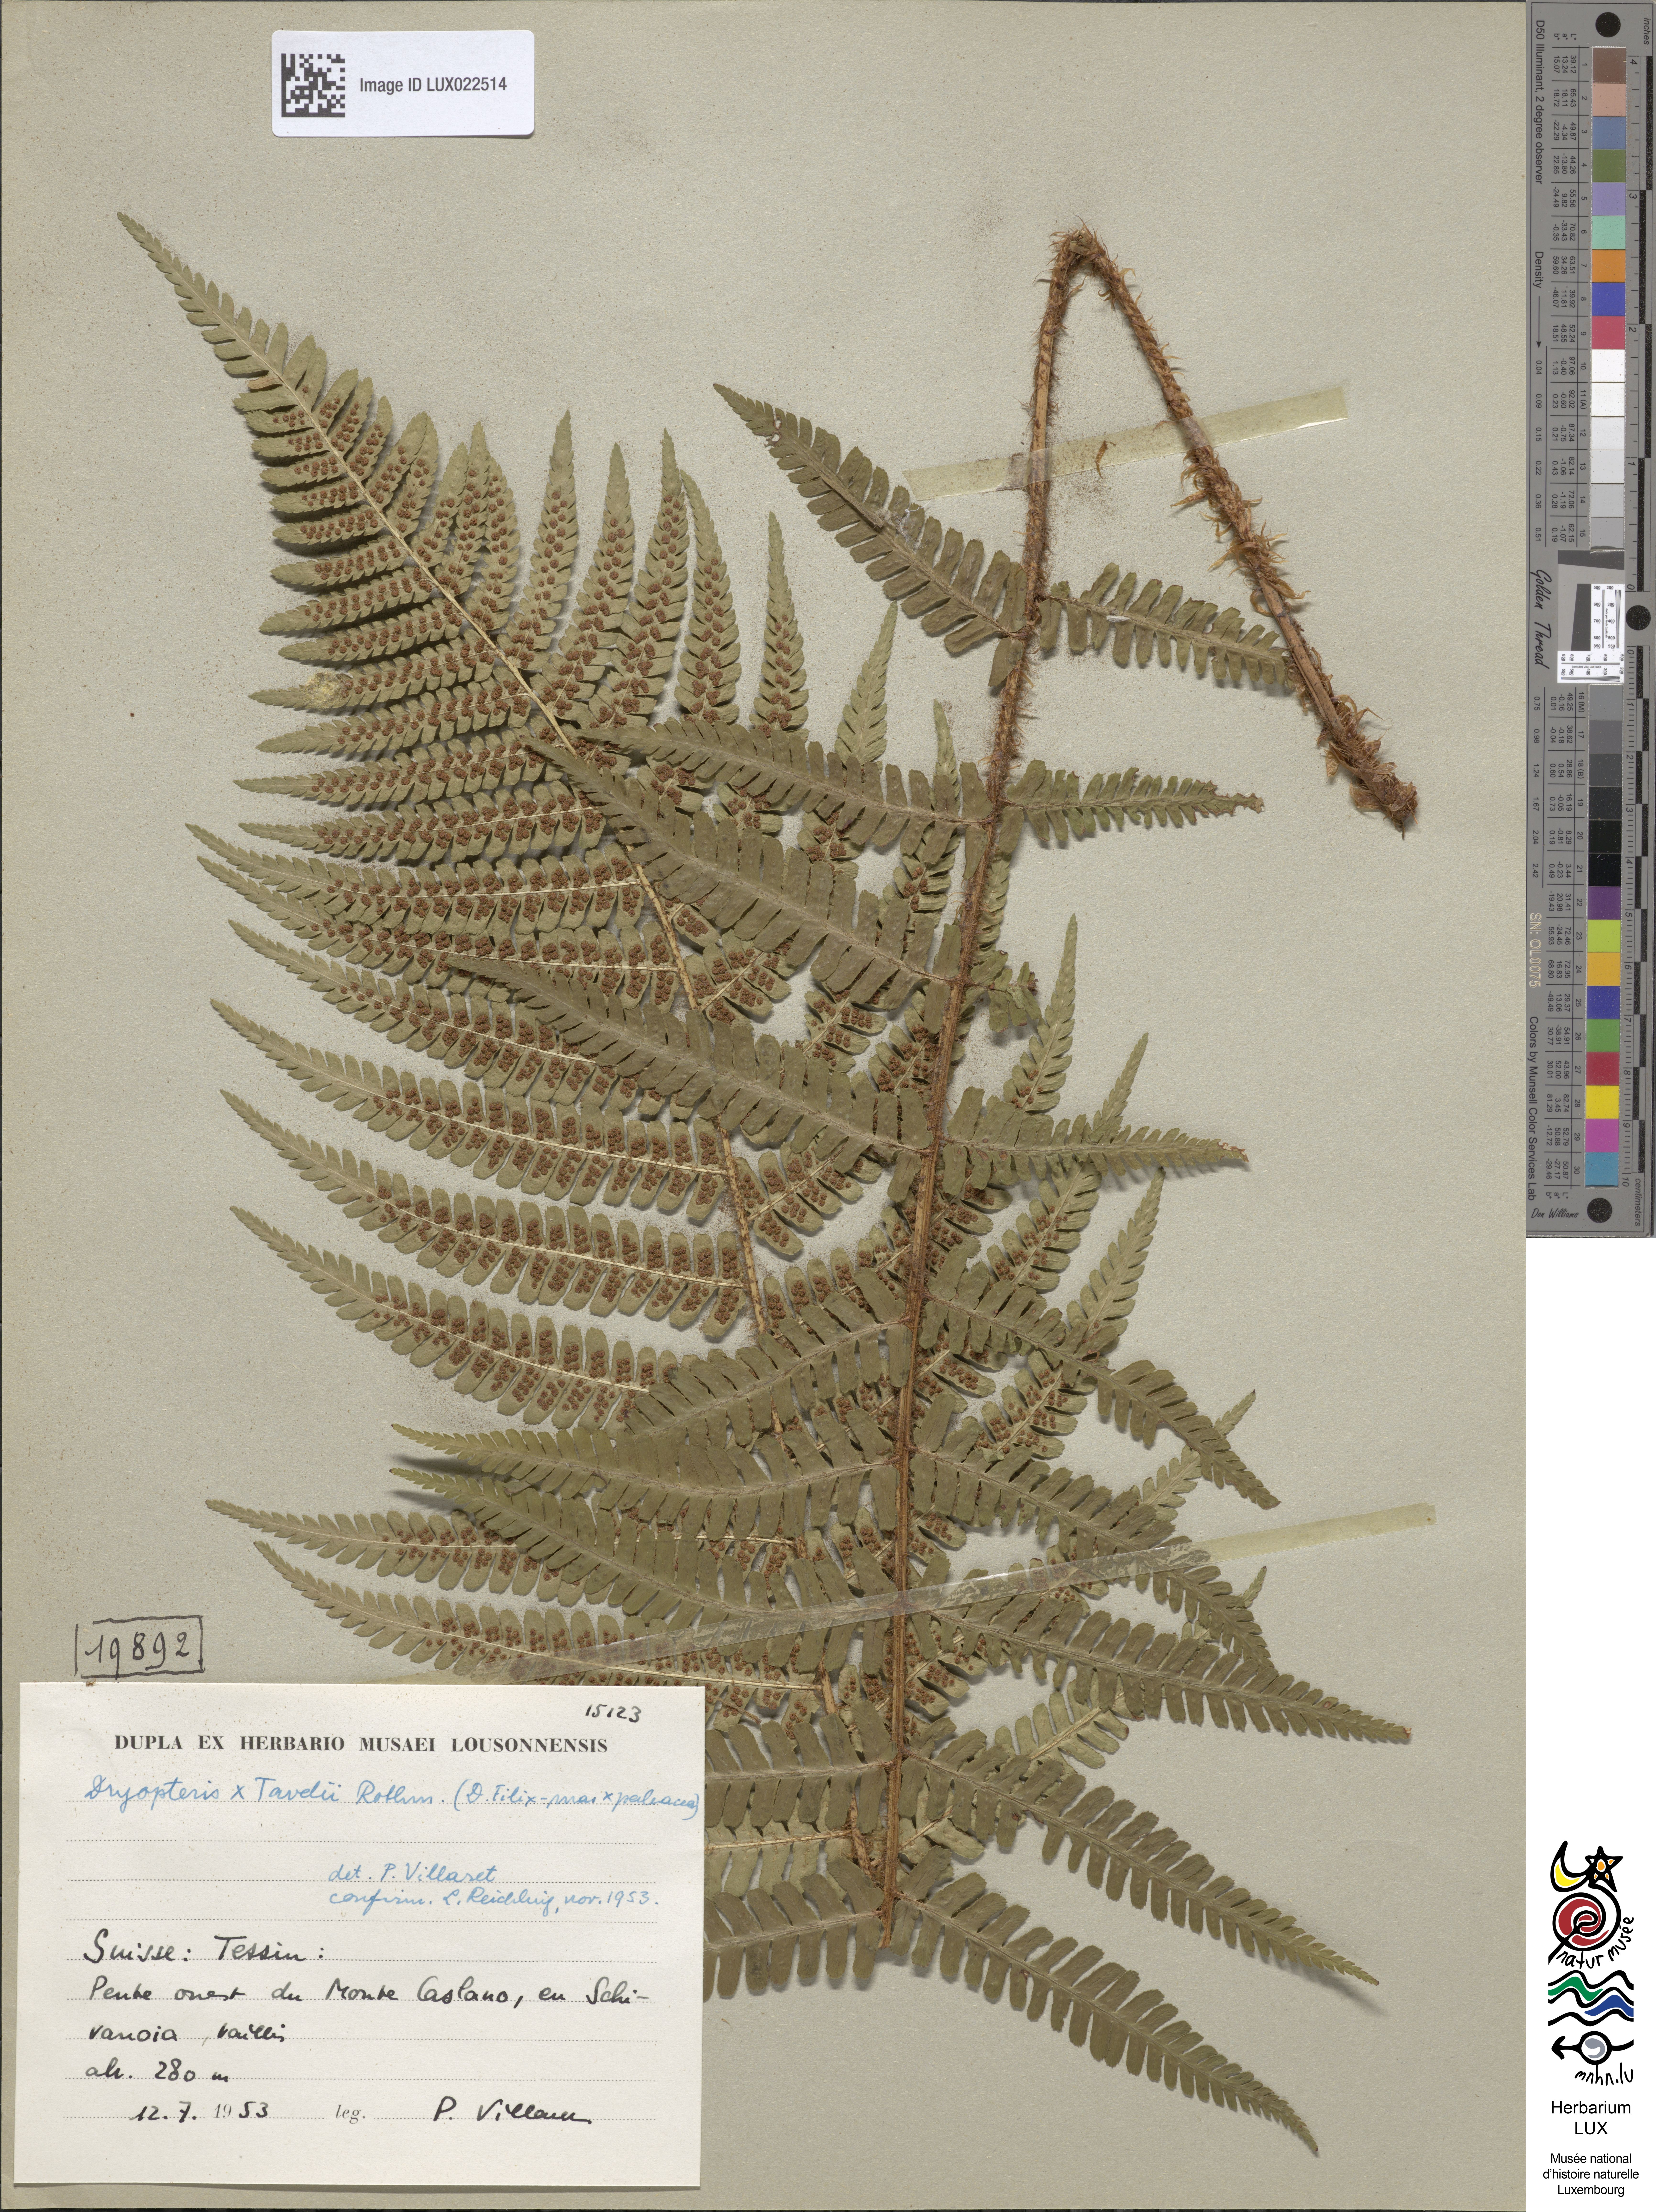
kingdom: Plantae
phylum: Tracheophyta
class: Polypodiopsida
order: Polypodiales
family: Dryopteridaceae
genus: Dryopteris
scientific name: Dryopteris borreri
